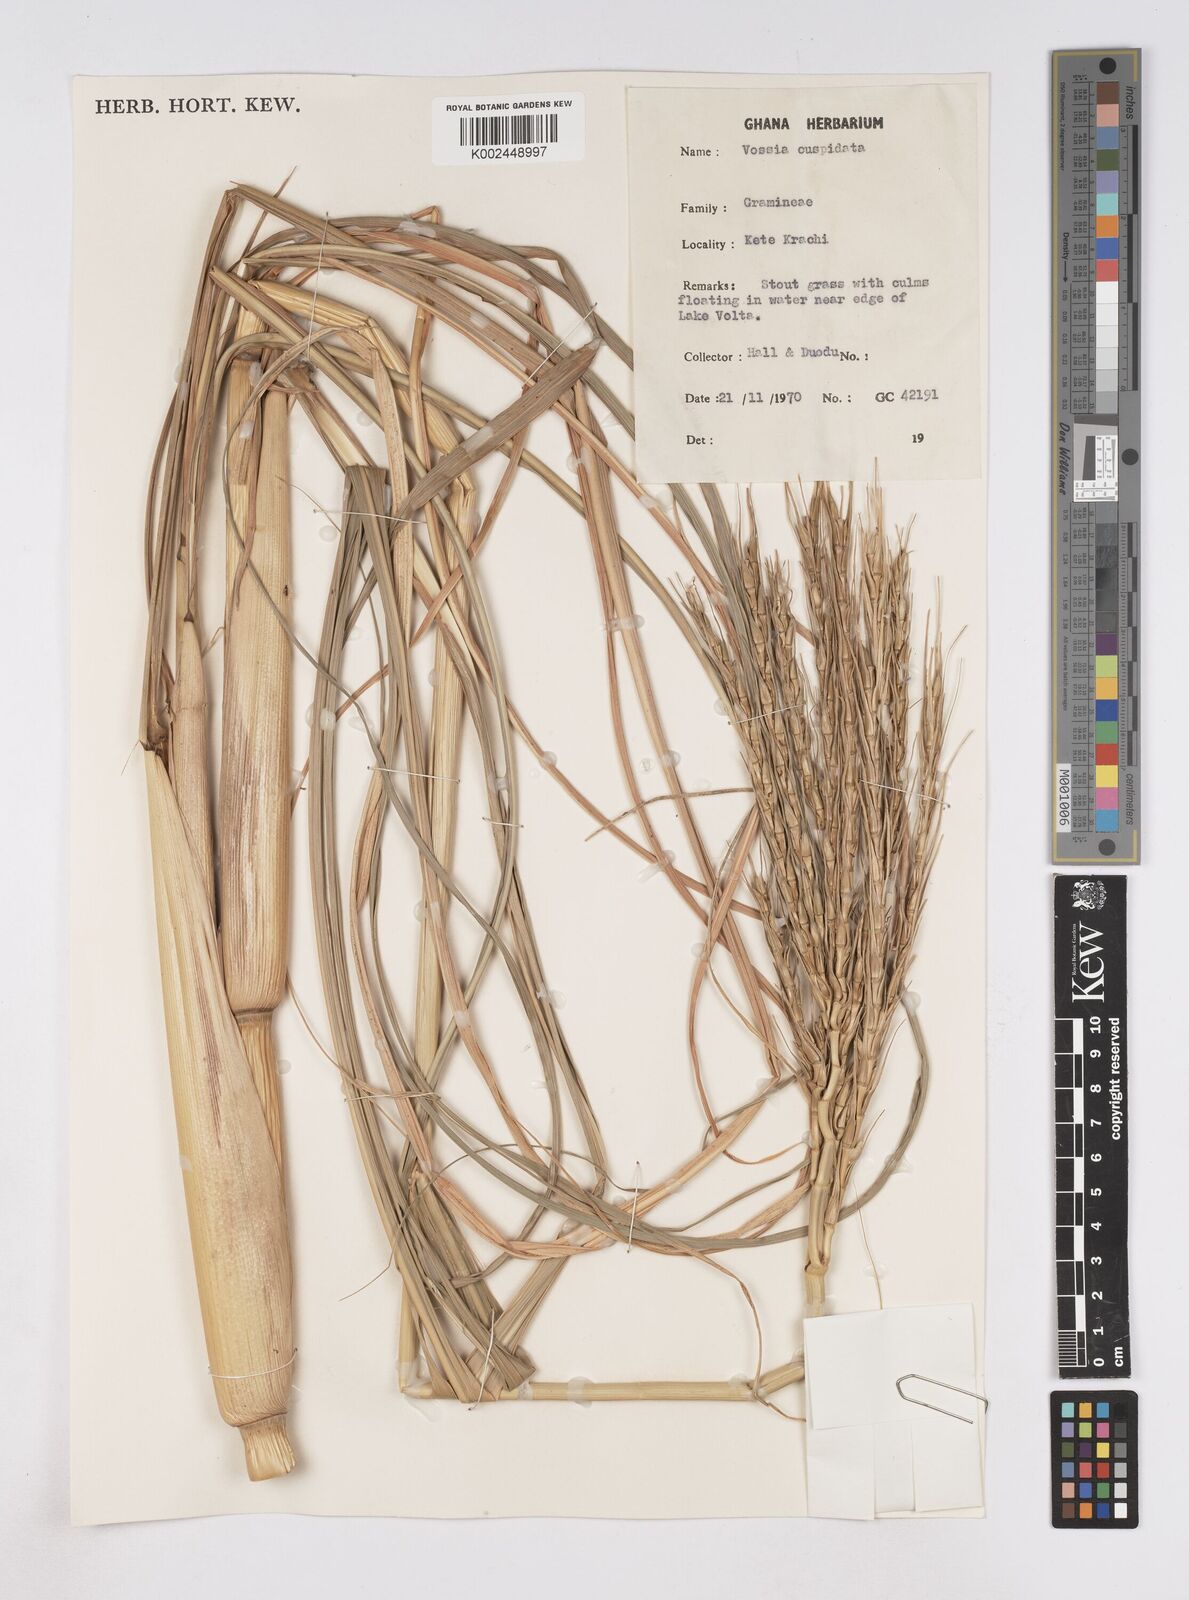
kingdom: Plantae
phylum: Tracheophyta
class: Liliopsida
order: Poales
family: Poaceae
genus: Vossia
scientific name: Vossia cuspidata
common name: Hippo grass
